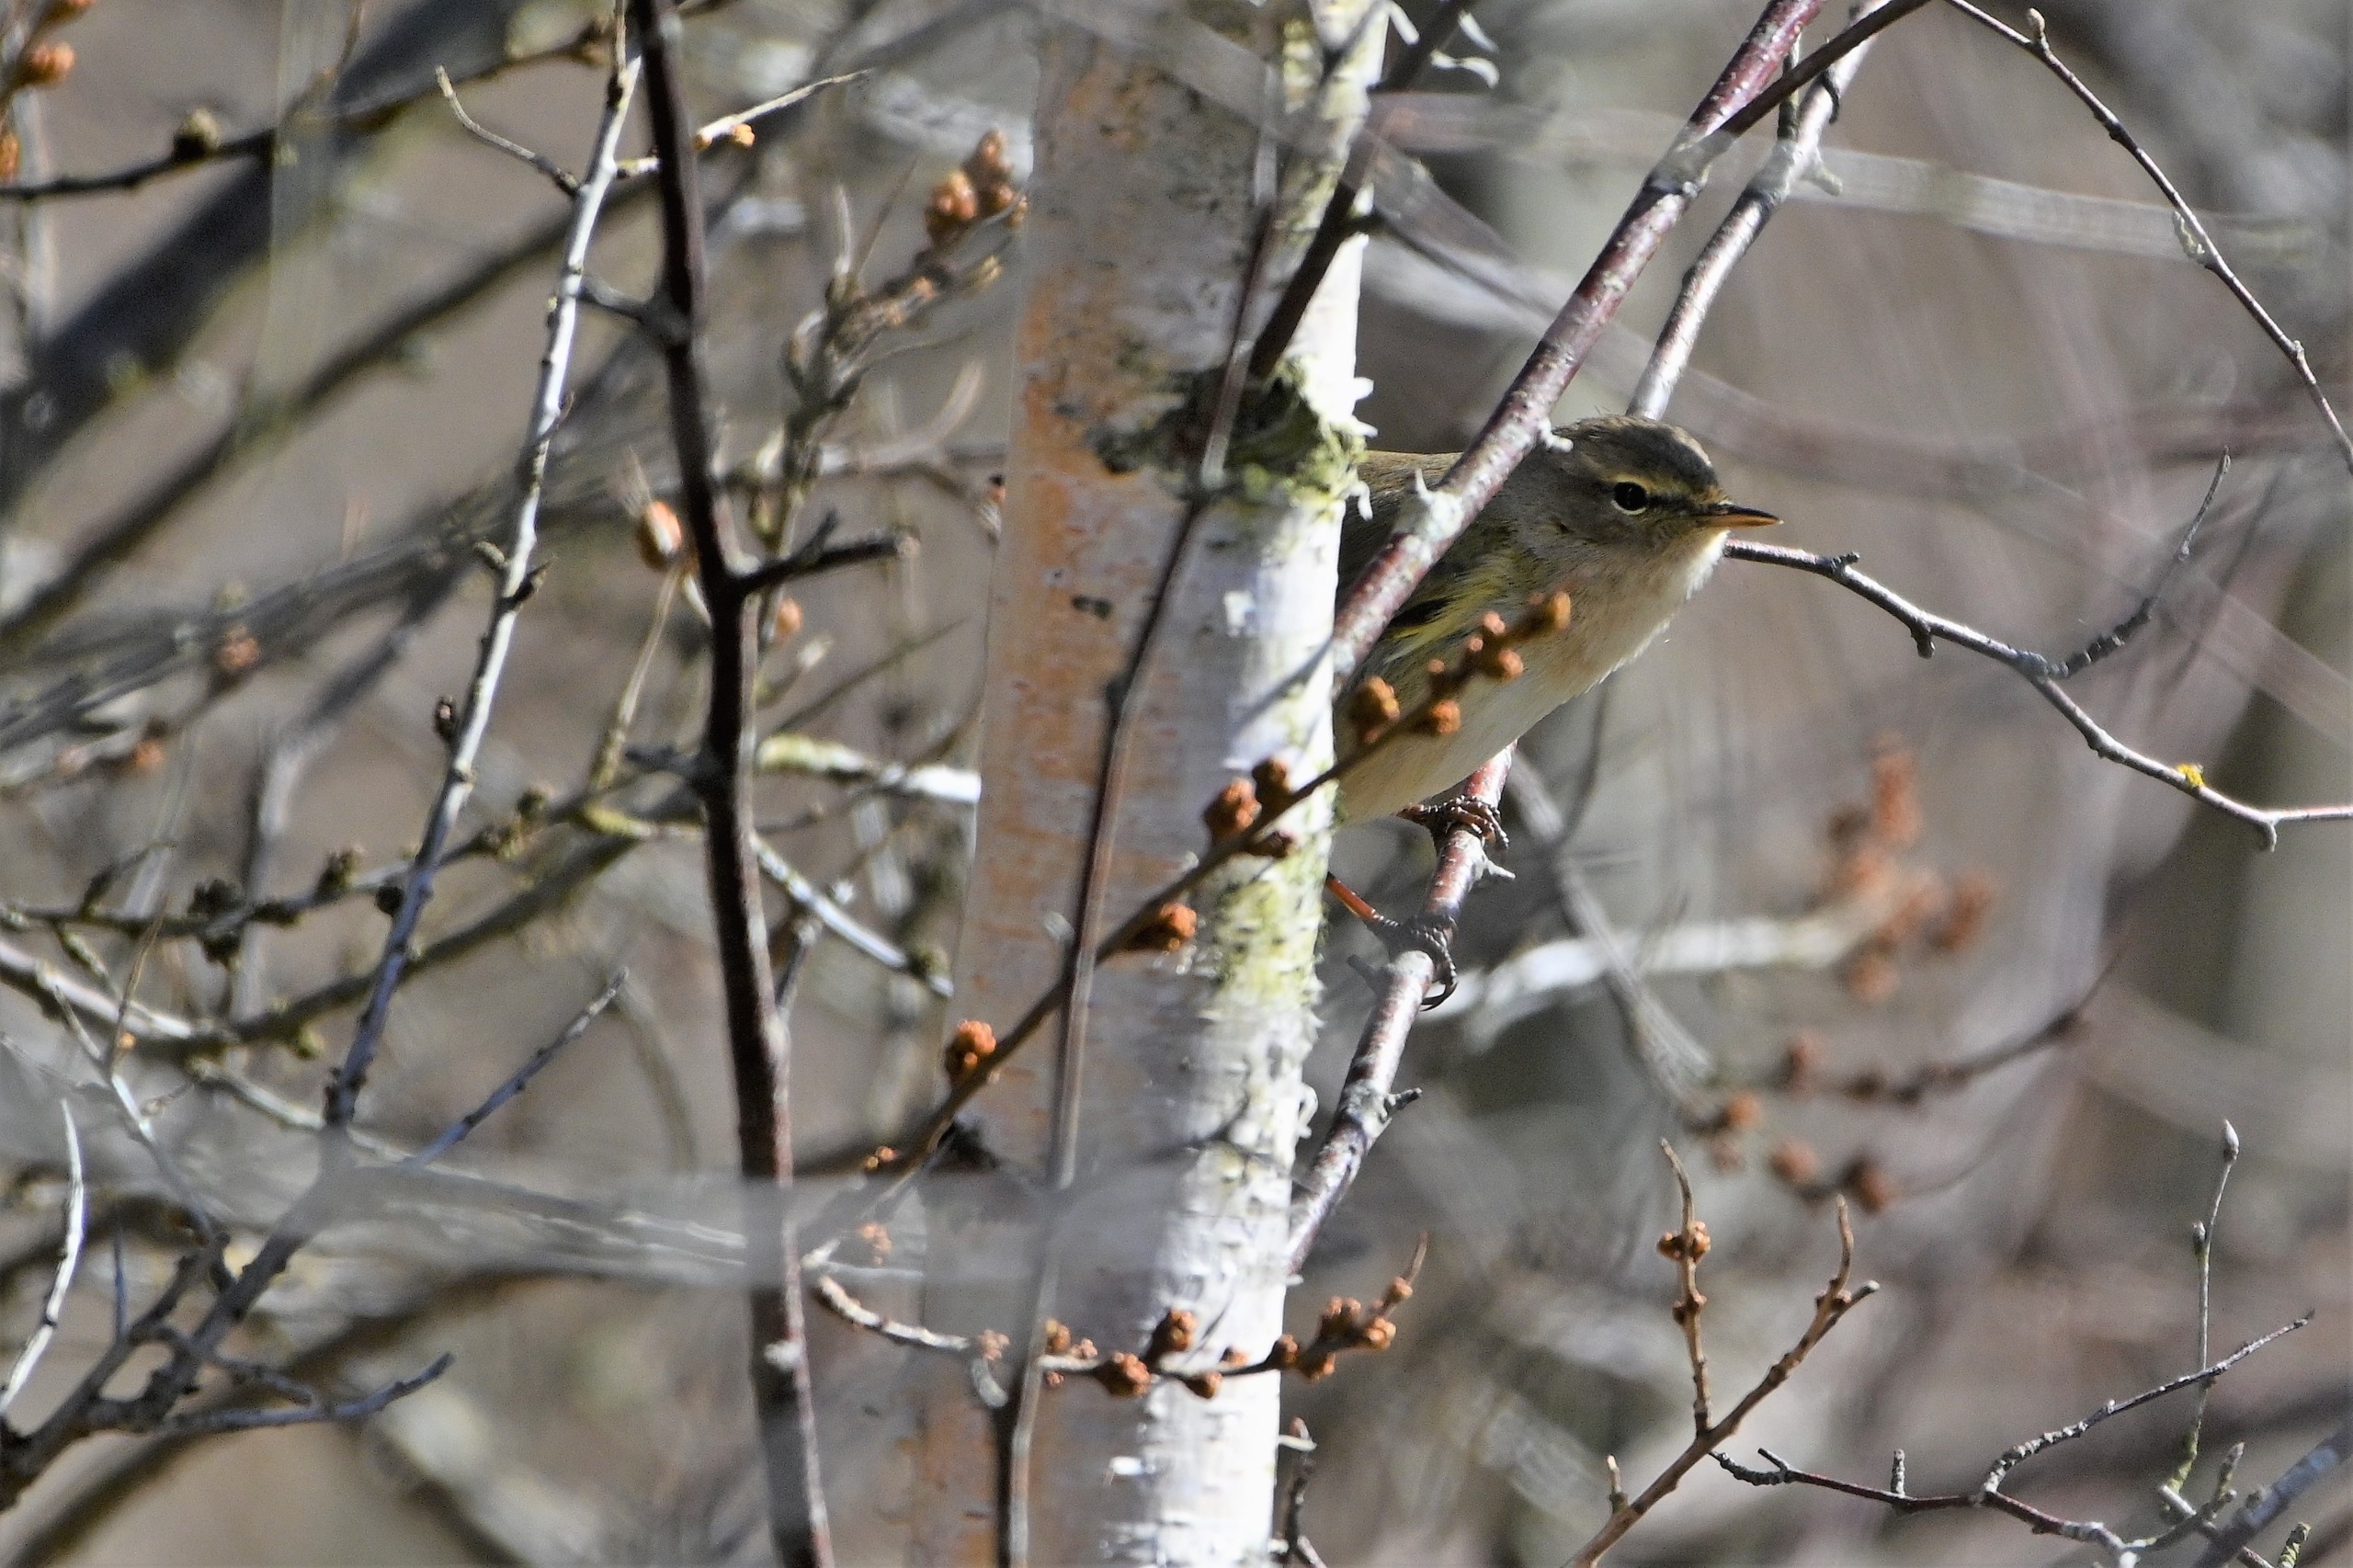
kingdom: Animalia
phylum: Chordata
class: Aves
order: Passeriformes
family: Phylloscopidae
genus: Phylloscopus
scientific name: Phylloscopus collybita
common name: Gransanger
